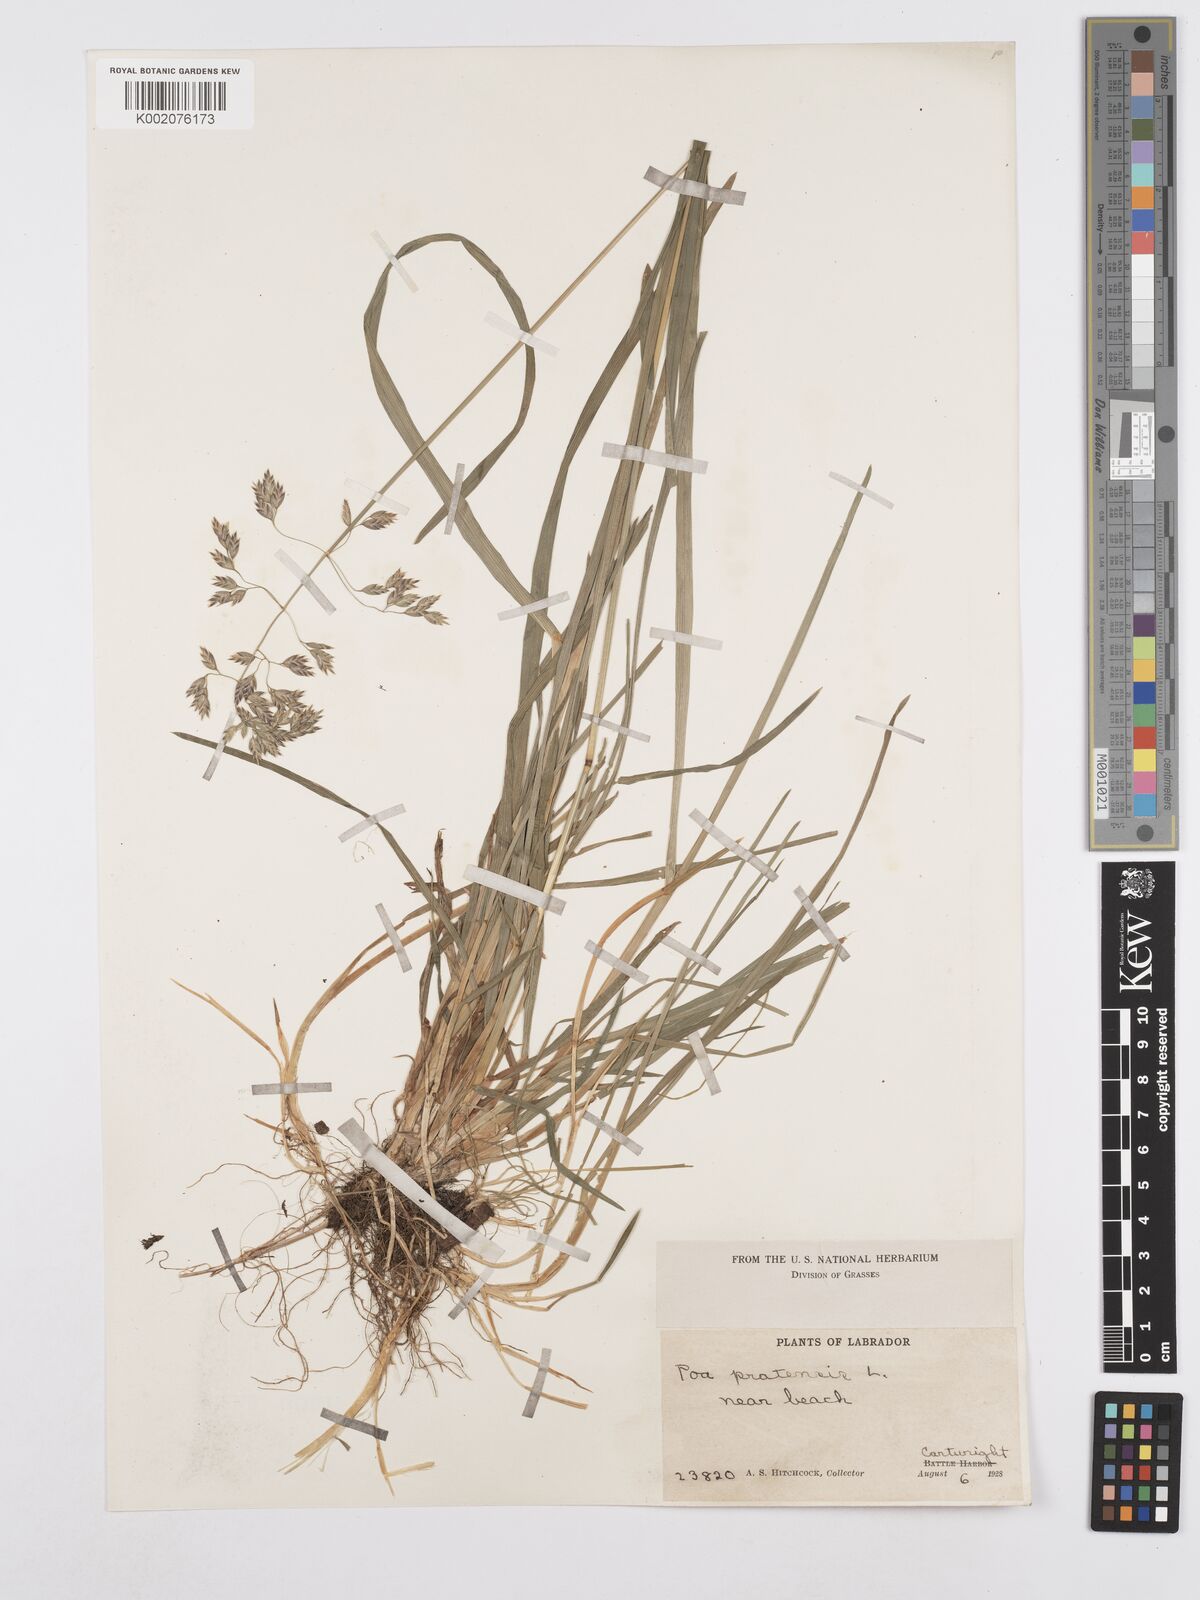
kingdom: Plantae
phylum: Tracheophyta
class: Liliopsida
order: Poales
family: Poaceae
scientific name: Poaceae
